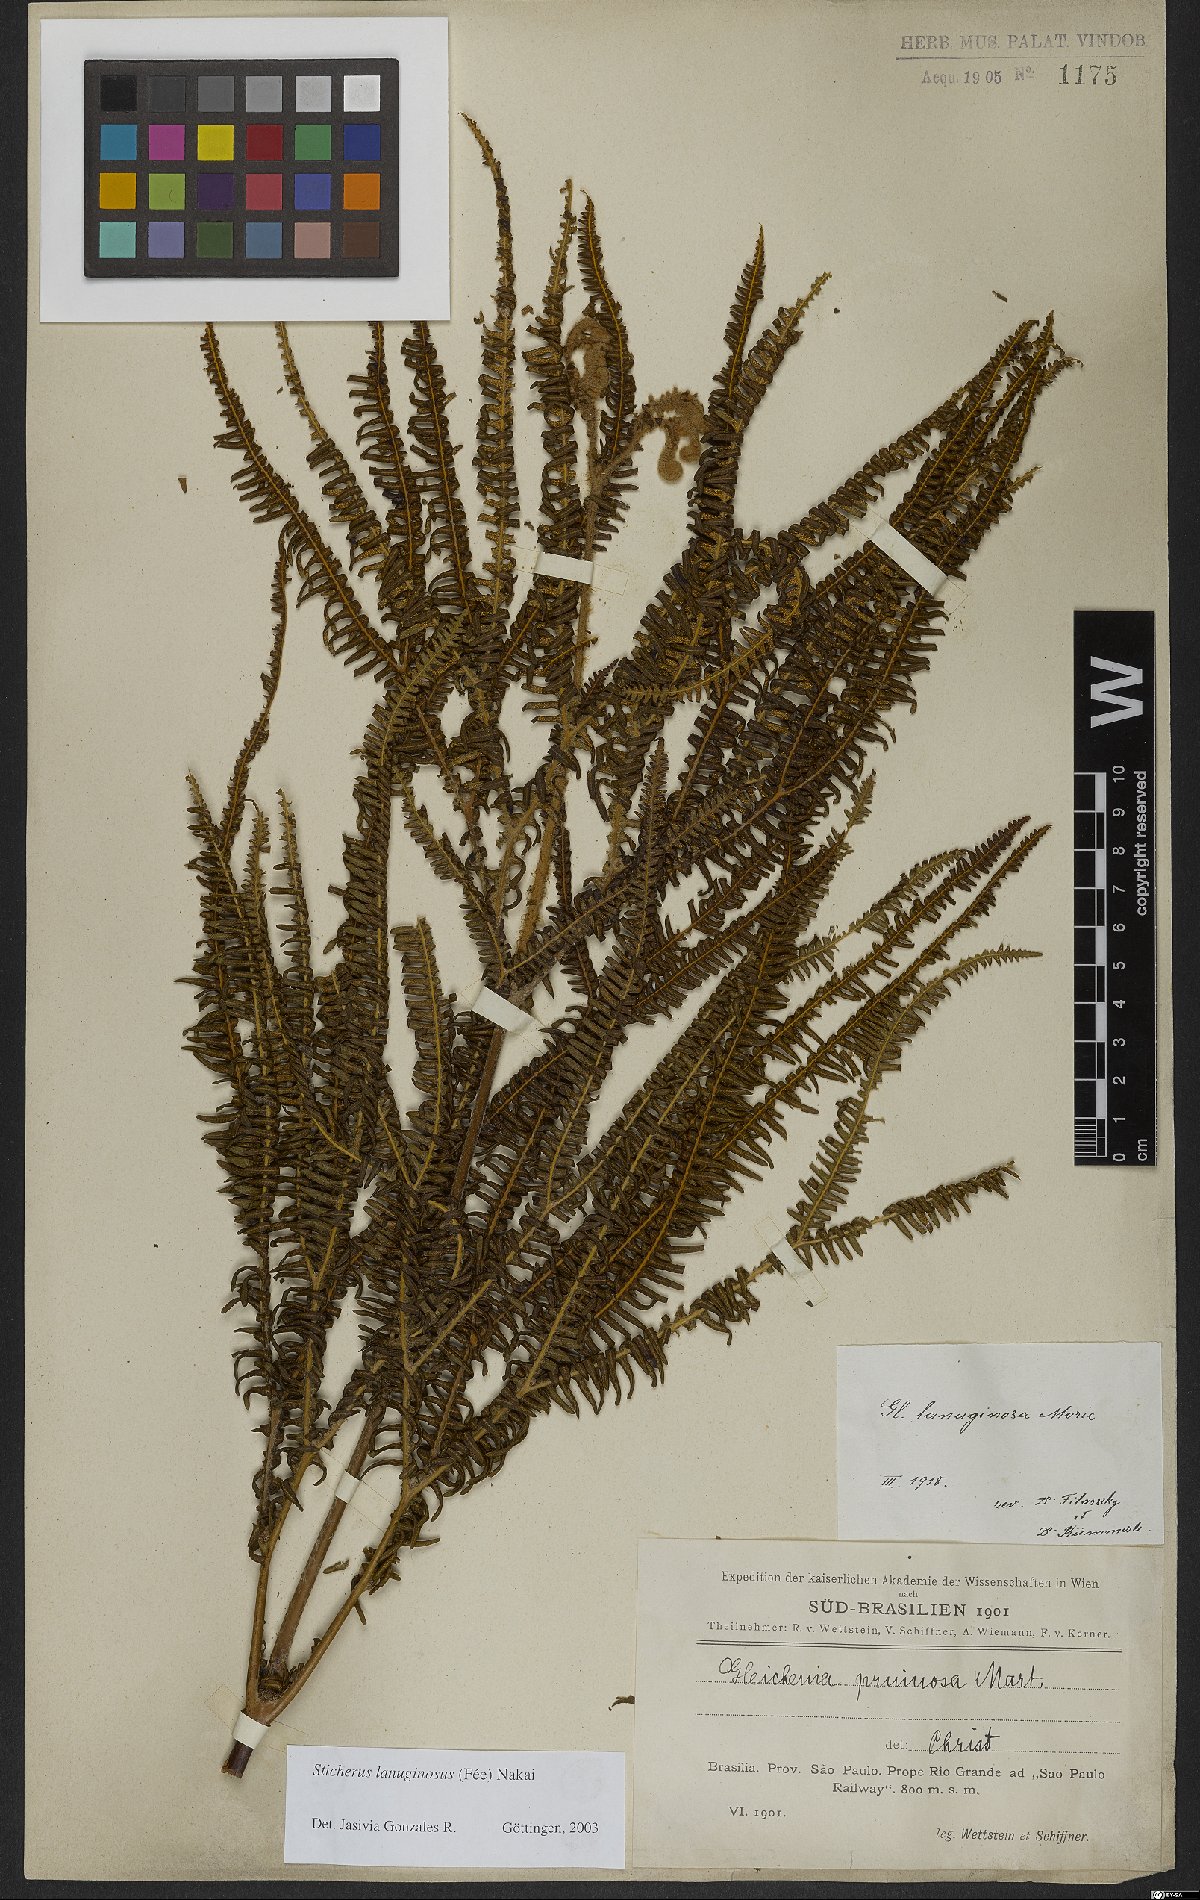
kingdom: Plantae
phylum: Tracheophyta
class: Polypodiopsida
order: Gleicheniales
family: Gleicheniaceae
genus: Sticherus
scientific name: Sticherus lanuginosus
